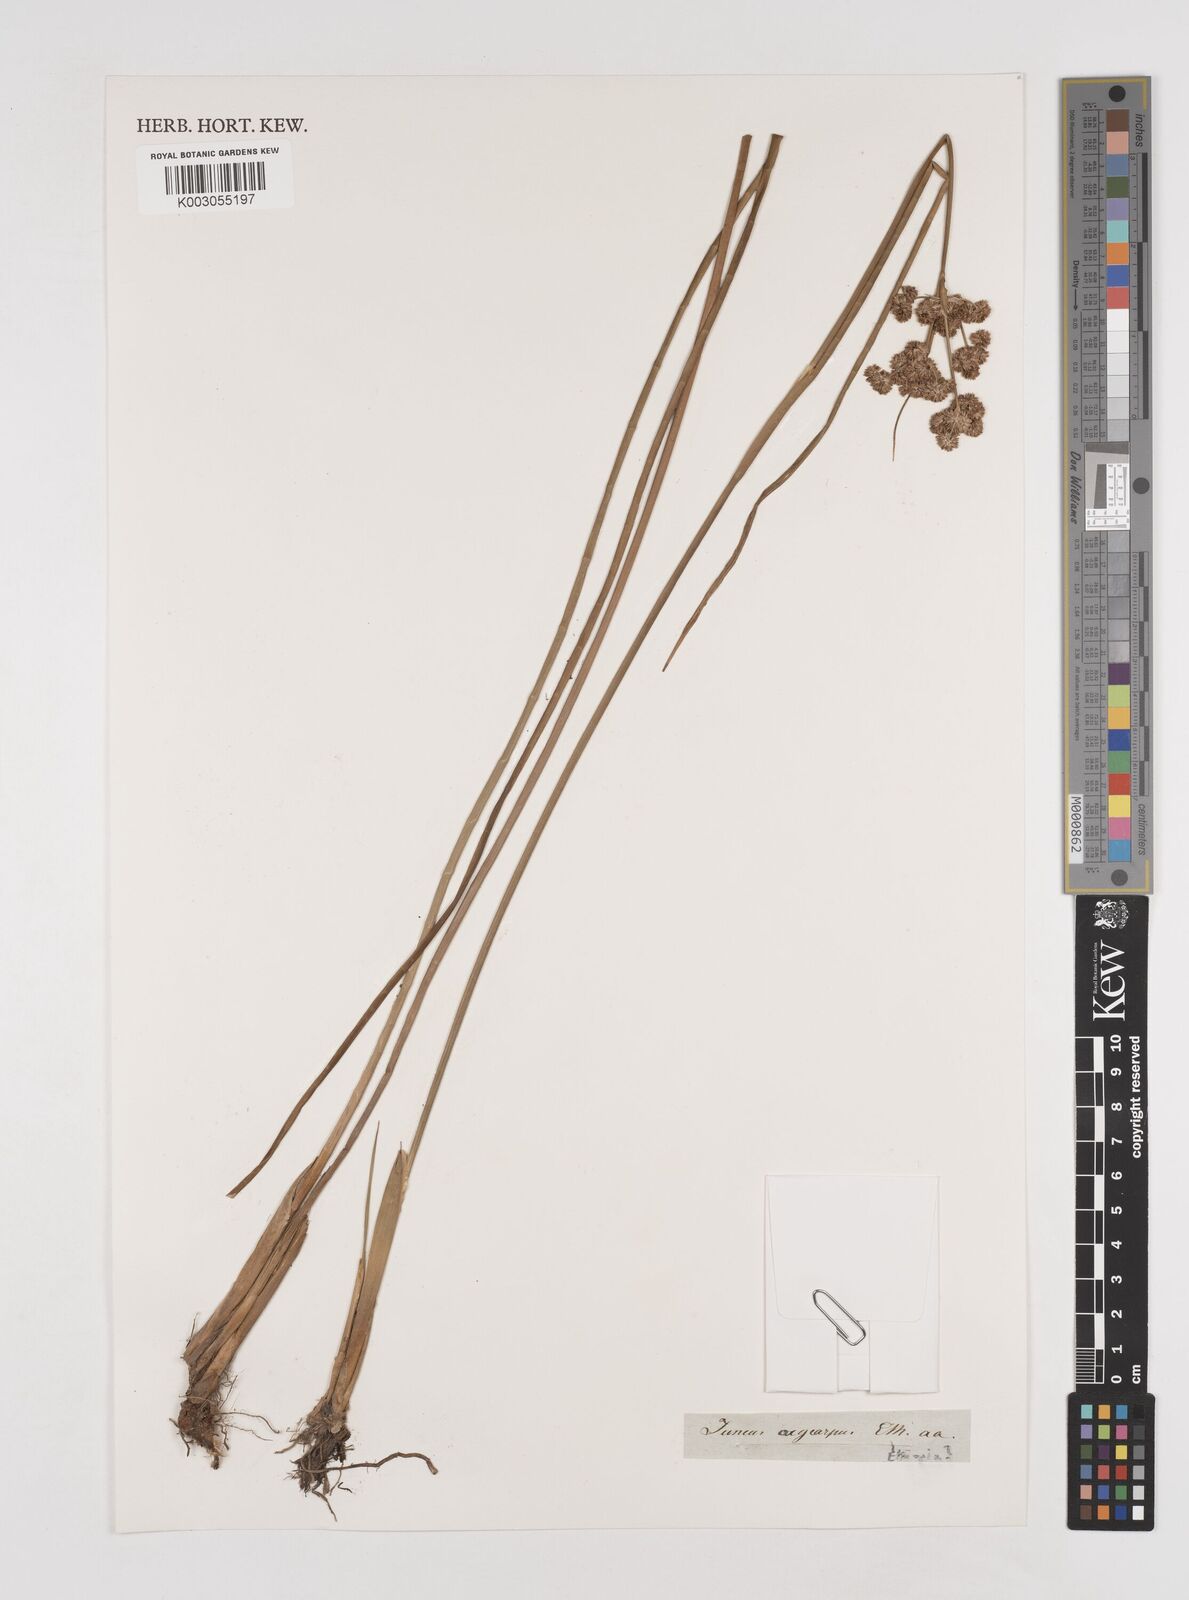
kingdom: Plantae
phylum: Tracheophyta
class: Liliopsida
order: Poales
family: Juncaceae
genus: Juncus
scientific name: Juncus oxycarpus
